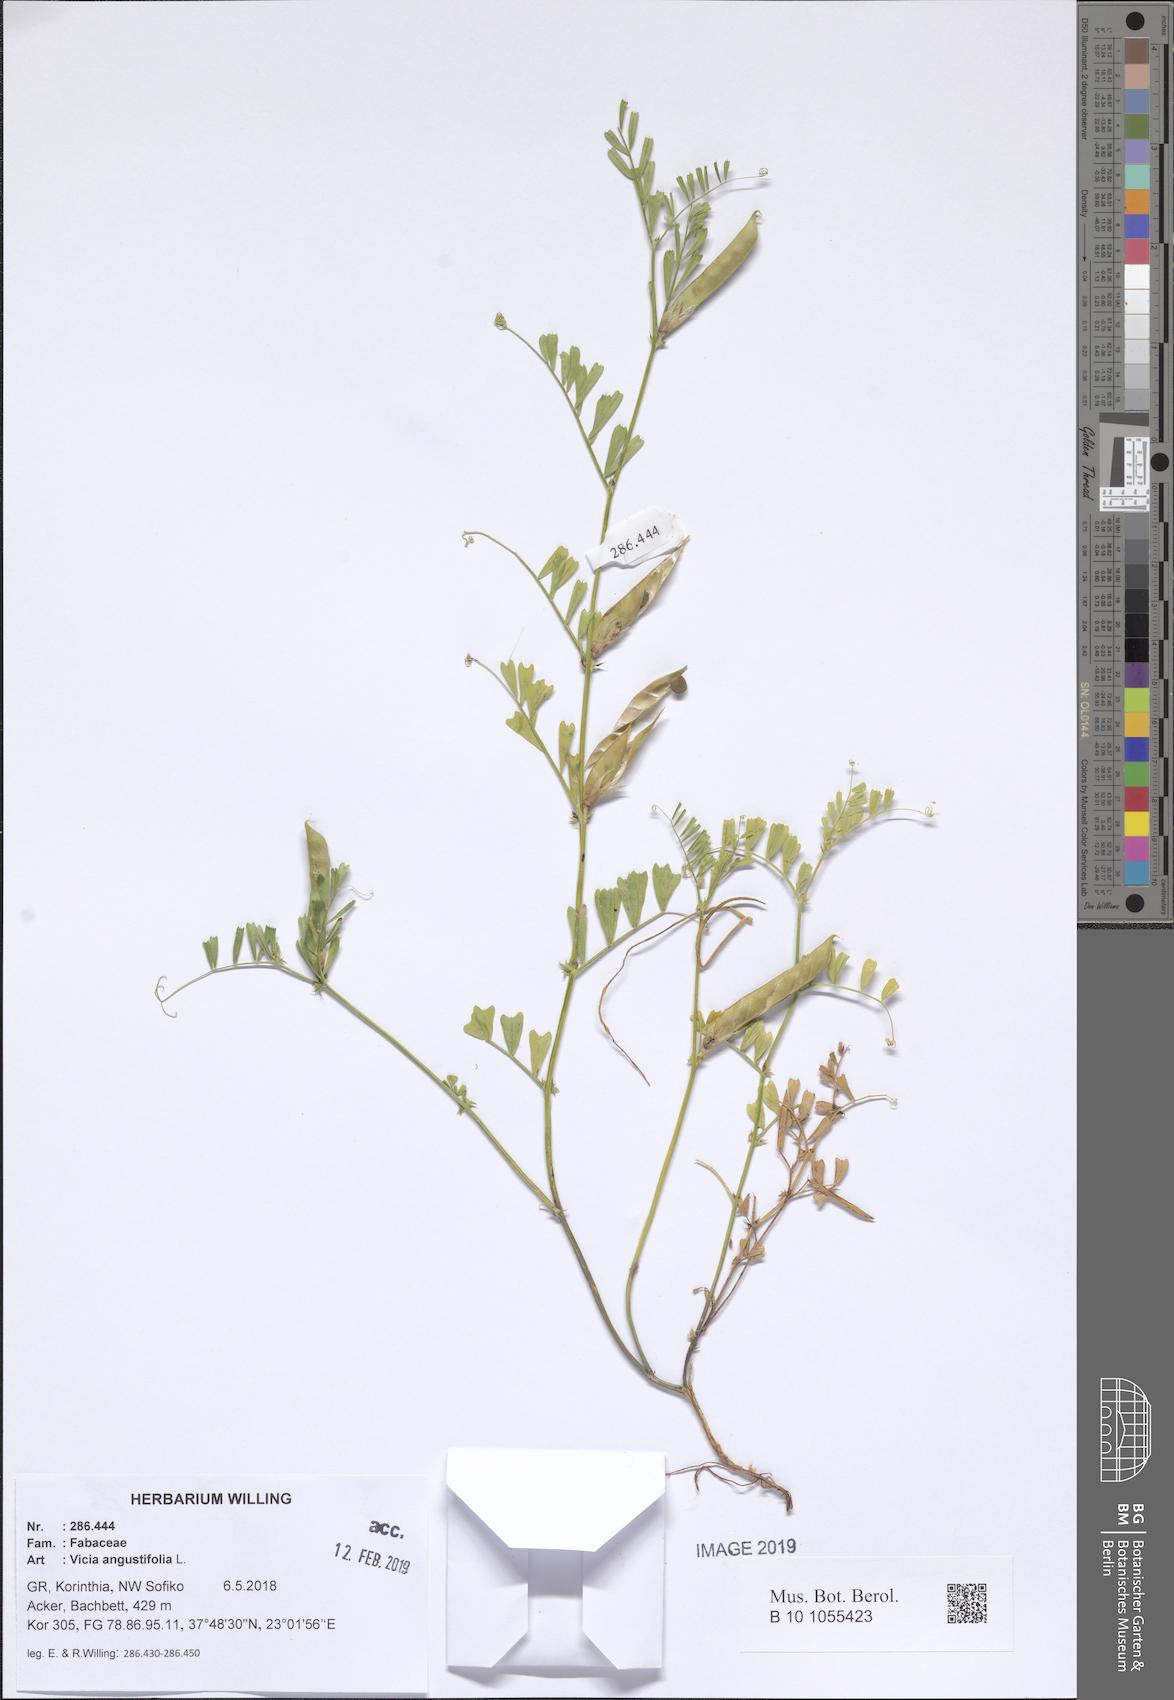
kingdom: Plantae
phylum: Tracheophyta
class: Magnoliopsida
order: Fabales
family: Fabaceae
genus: Vicia
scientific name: Vicia sativa
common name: Garden vetch
